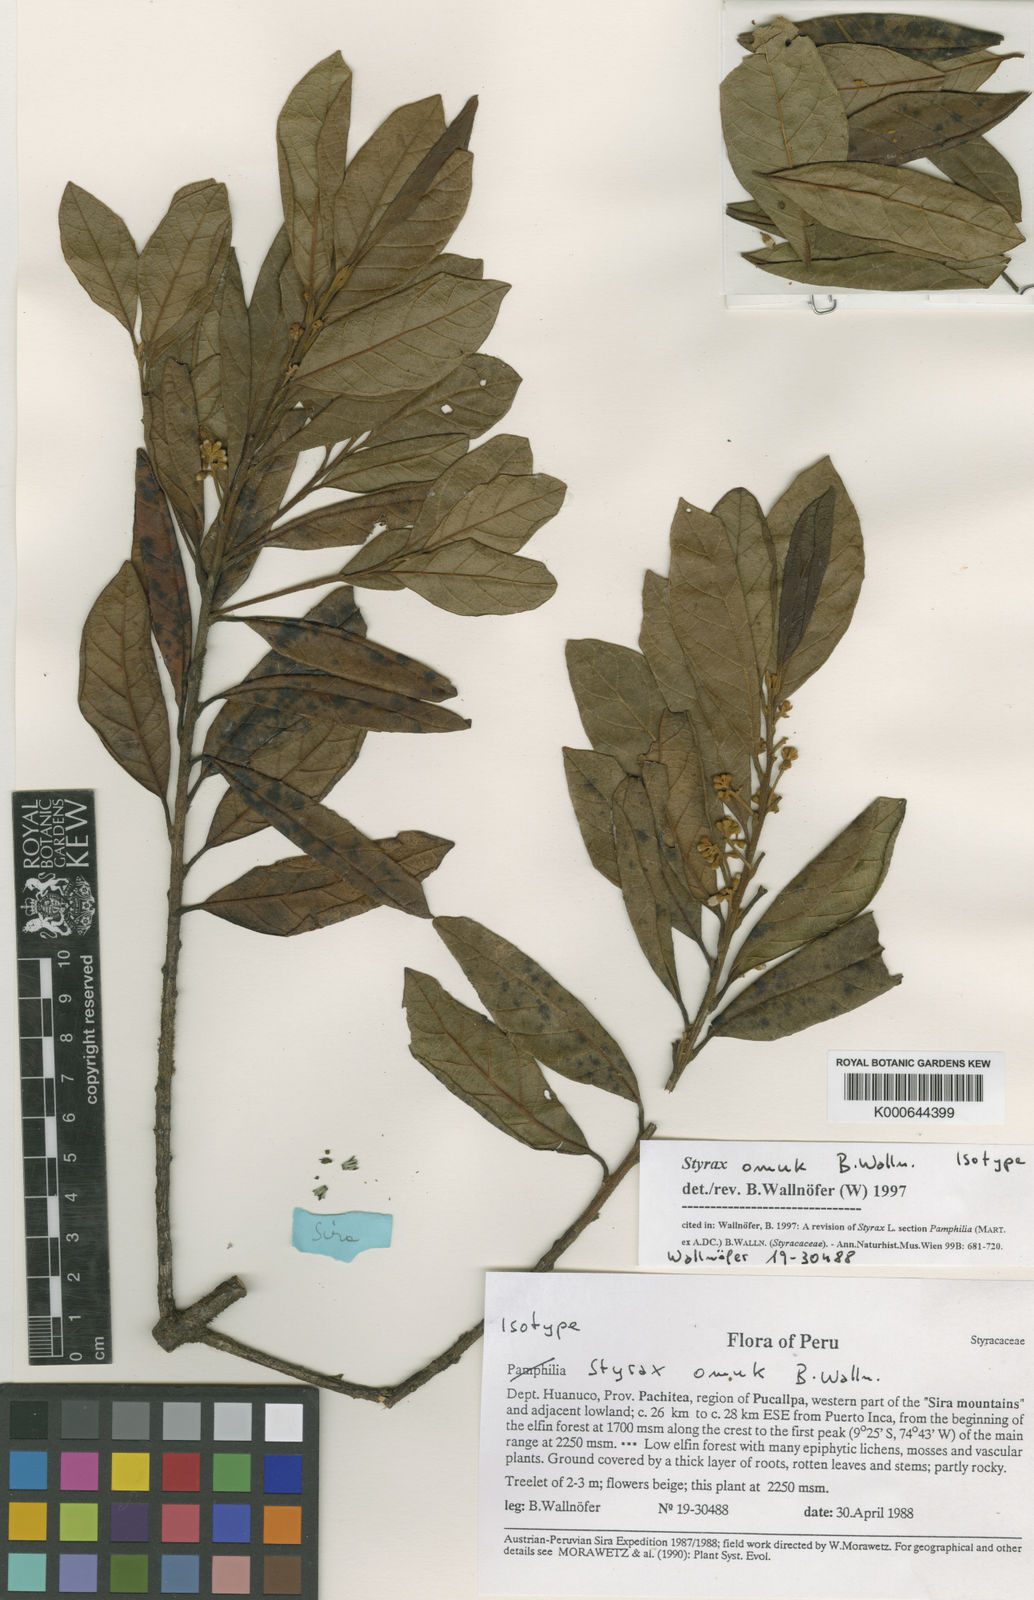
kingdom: Plantae
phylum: Tracheophyta
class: Magnoliopsida
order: Ericales
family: Styracaceae
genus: Styrax
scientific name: Styrax omuk
